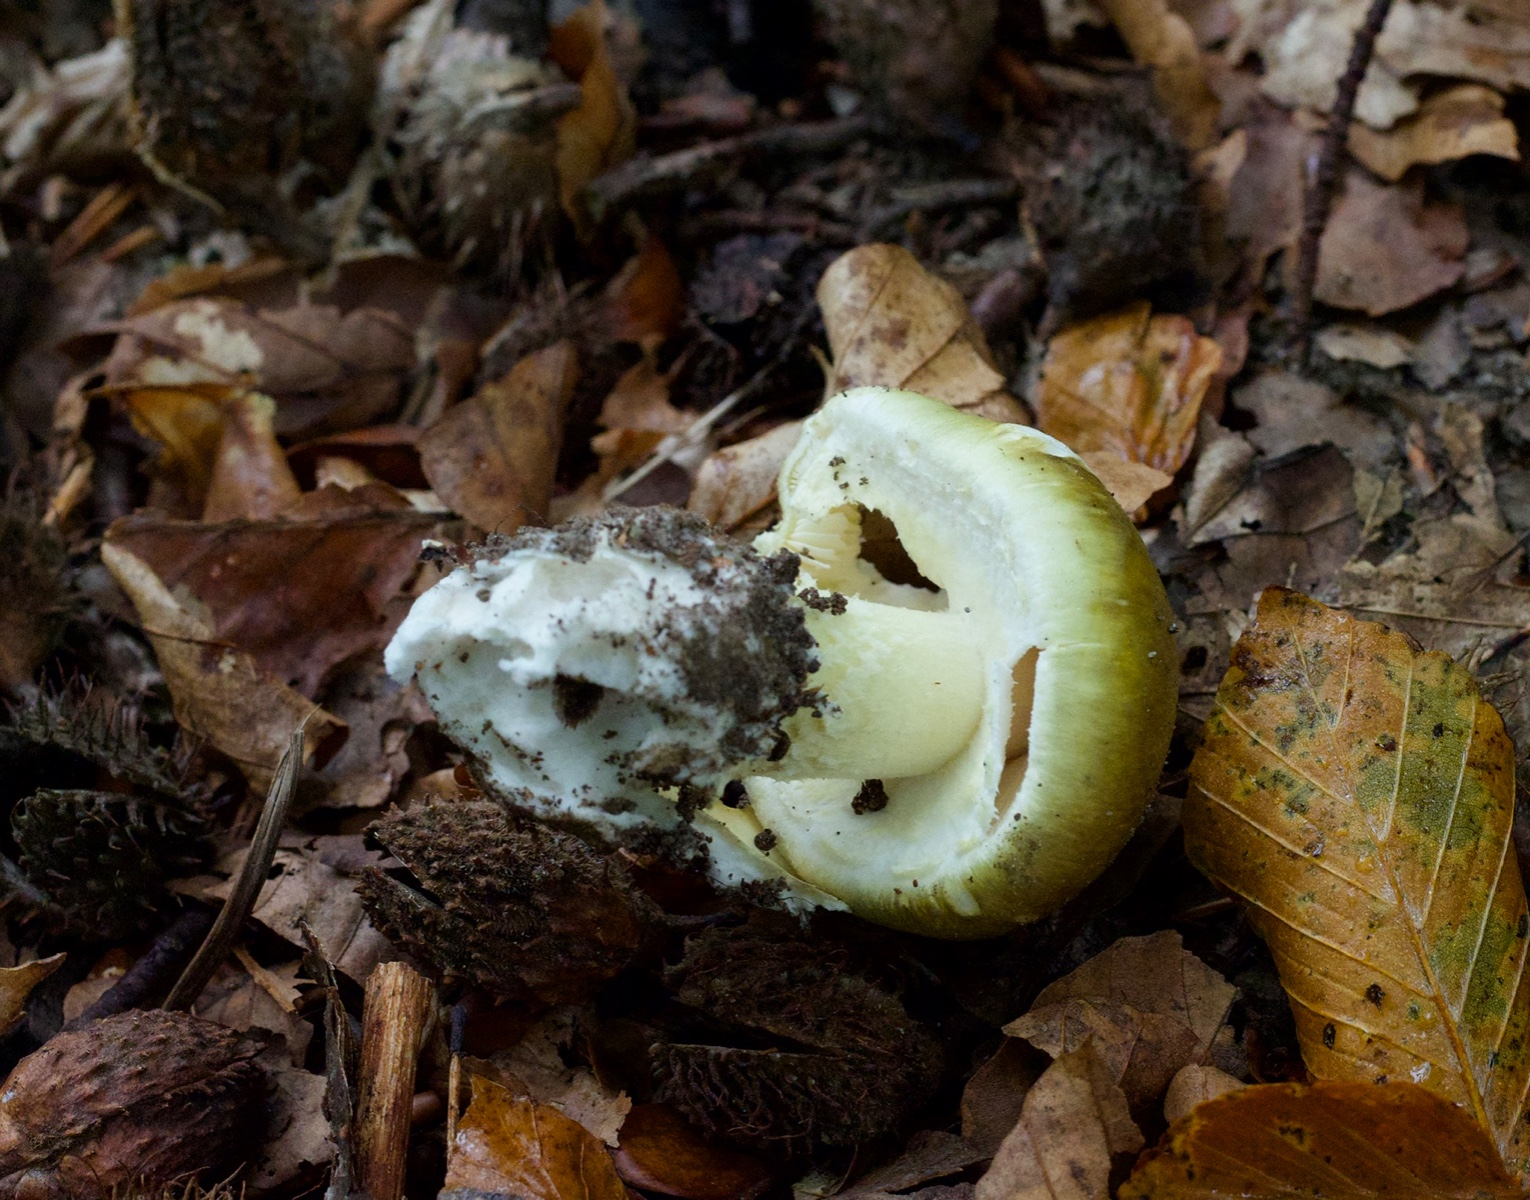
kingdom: Fungi
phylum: Basidiomycota
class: Agaricomycetes
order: Agaricales
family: Amanitaceae
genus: Amanita
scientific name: Amanita phalloides
